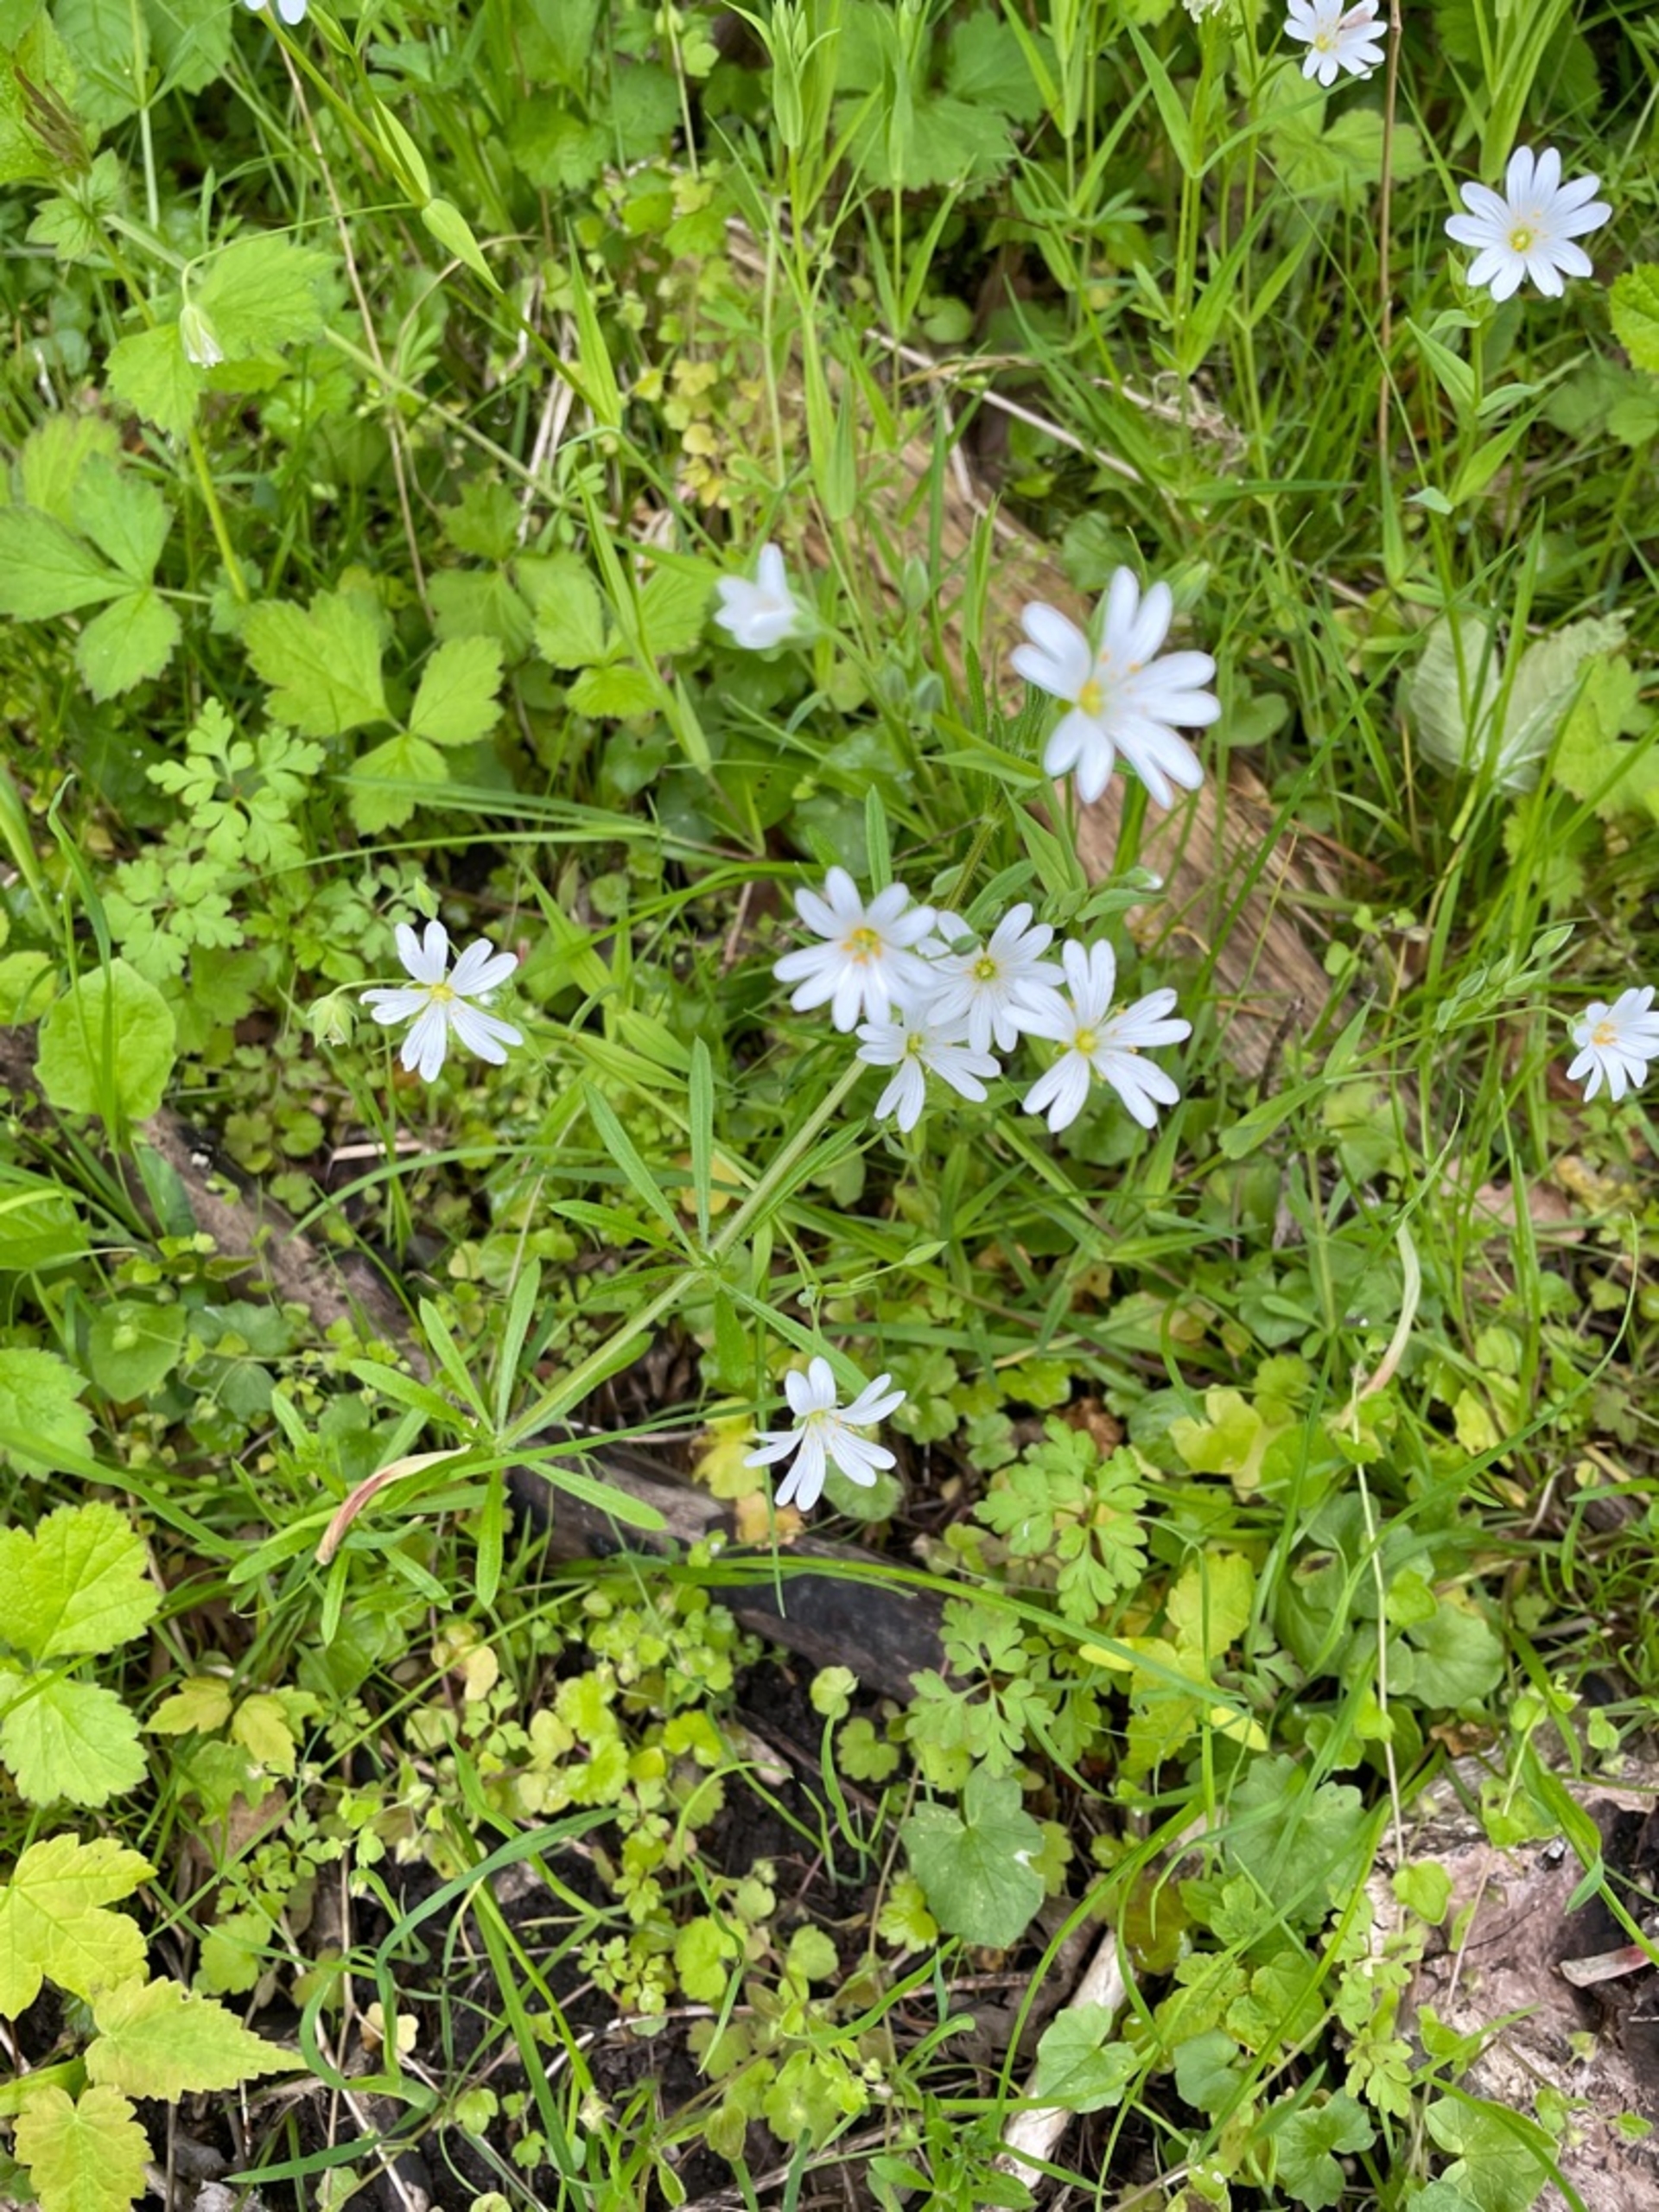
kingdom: Plantae
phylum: Tracheophyta
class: Magnoliopsida
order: Caryophyllales
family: Caryophyllaceae
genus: Rabelera
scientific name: Rabelera holostea
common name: Stor fladstjerne
